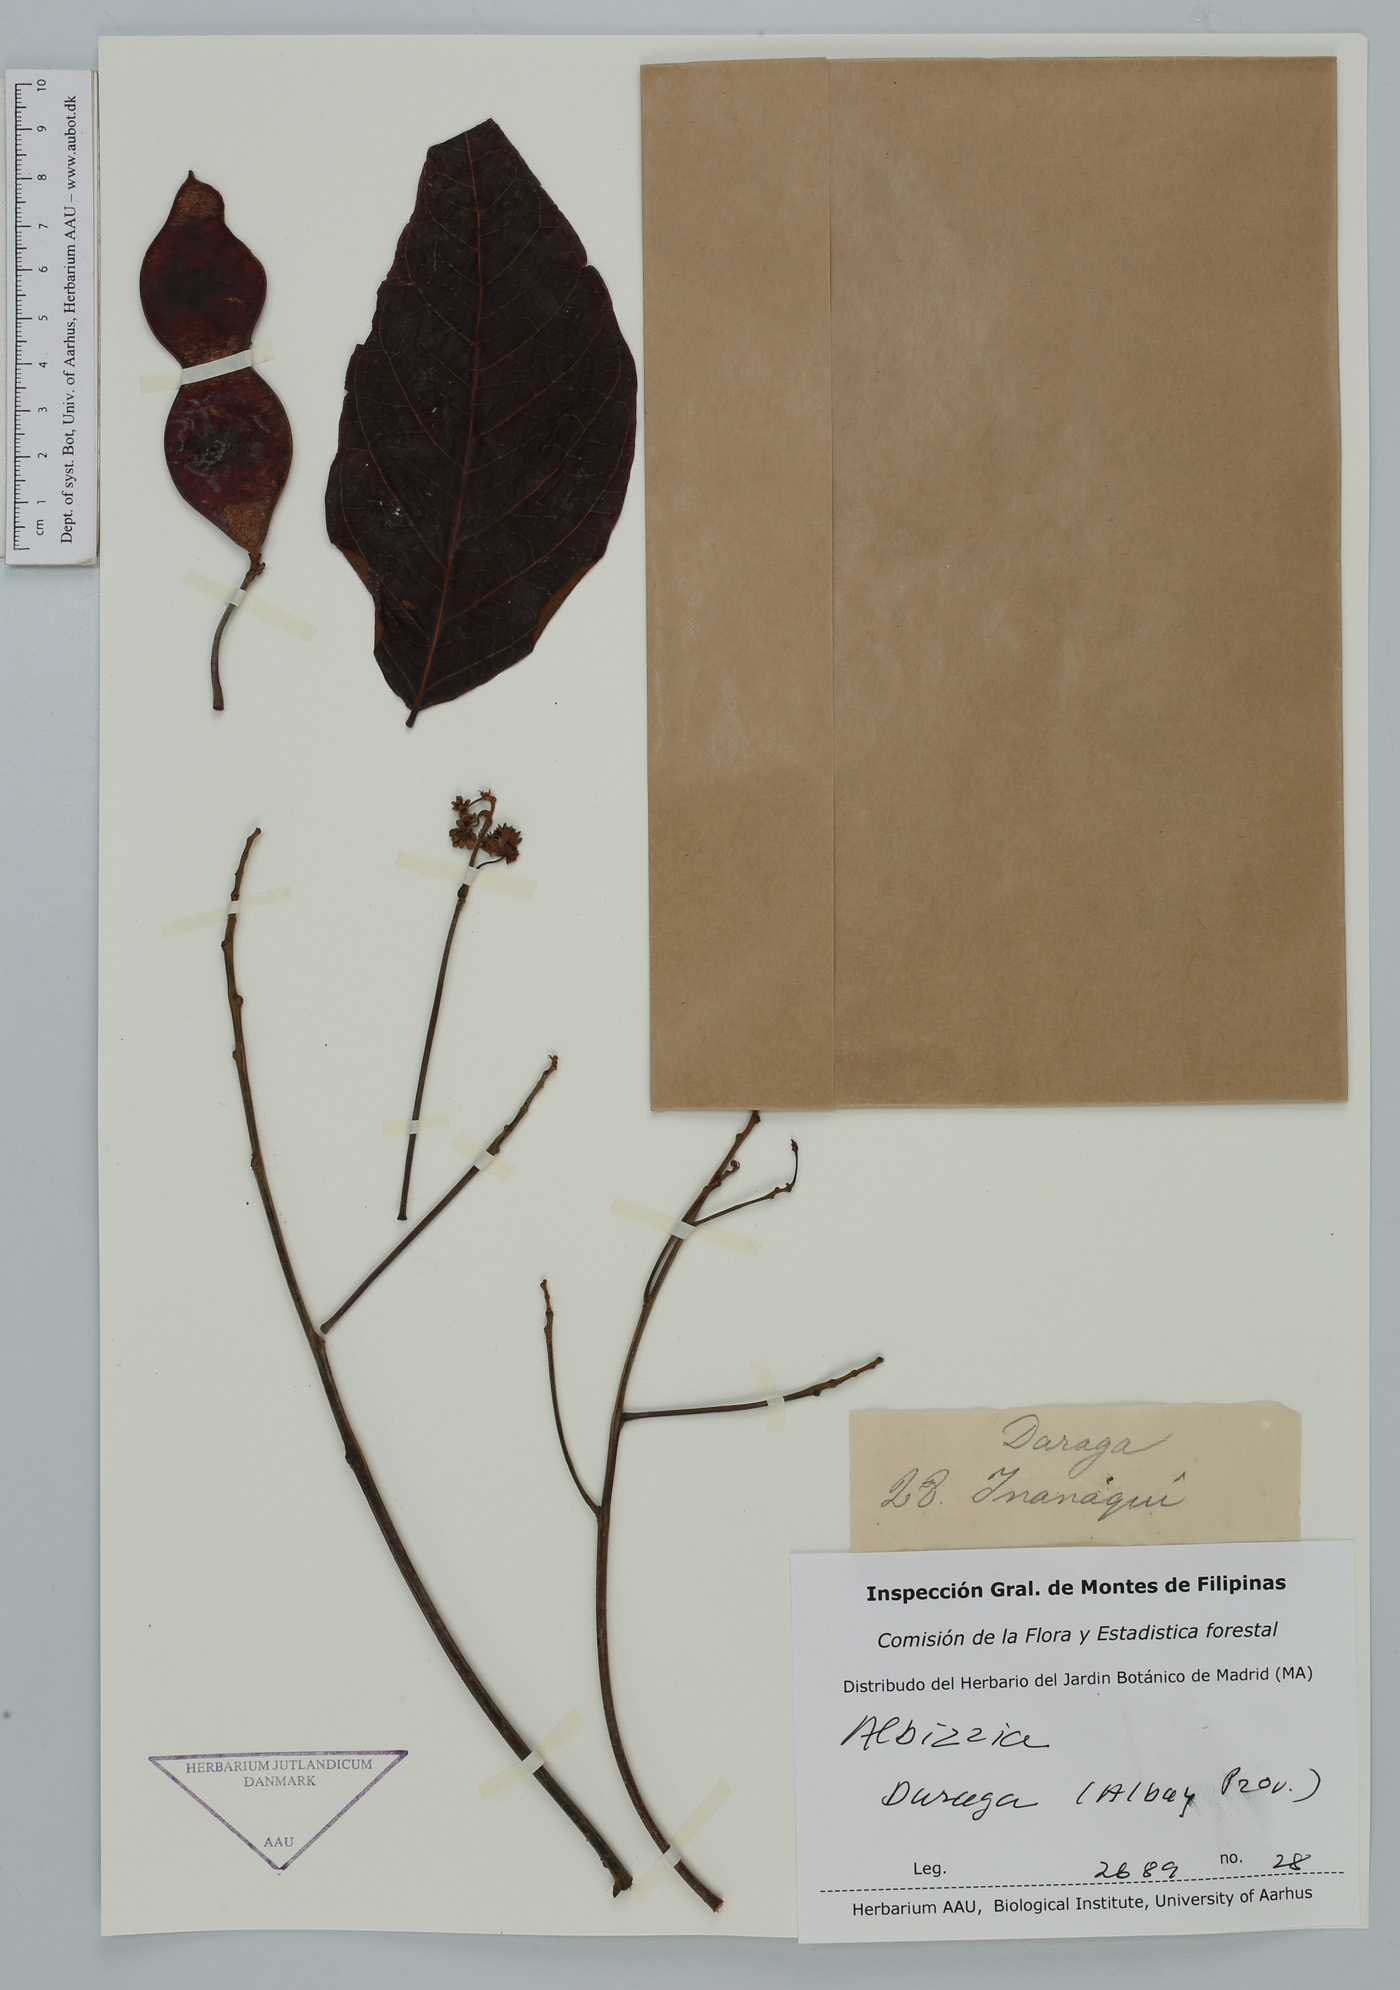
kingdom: Plantae
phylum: Tracheophyta
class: Magnoliopsida
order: Fabales
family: Fabaceae
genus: Albizia
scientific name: Albizia
